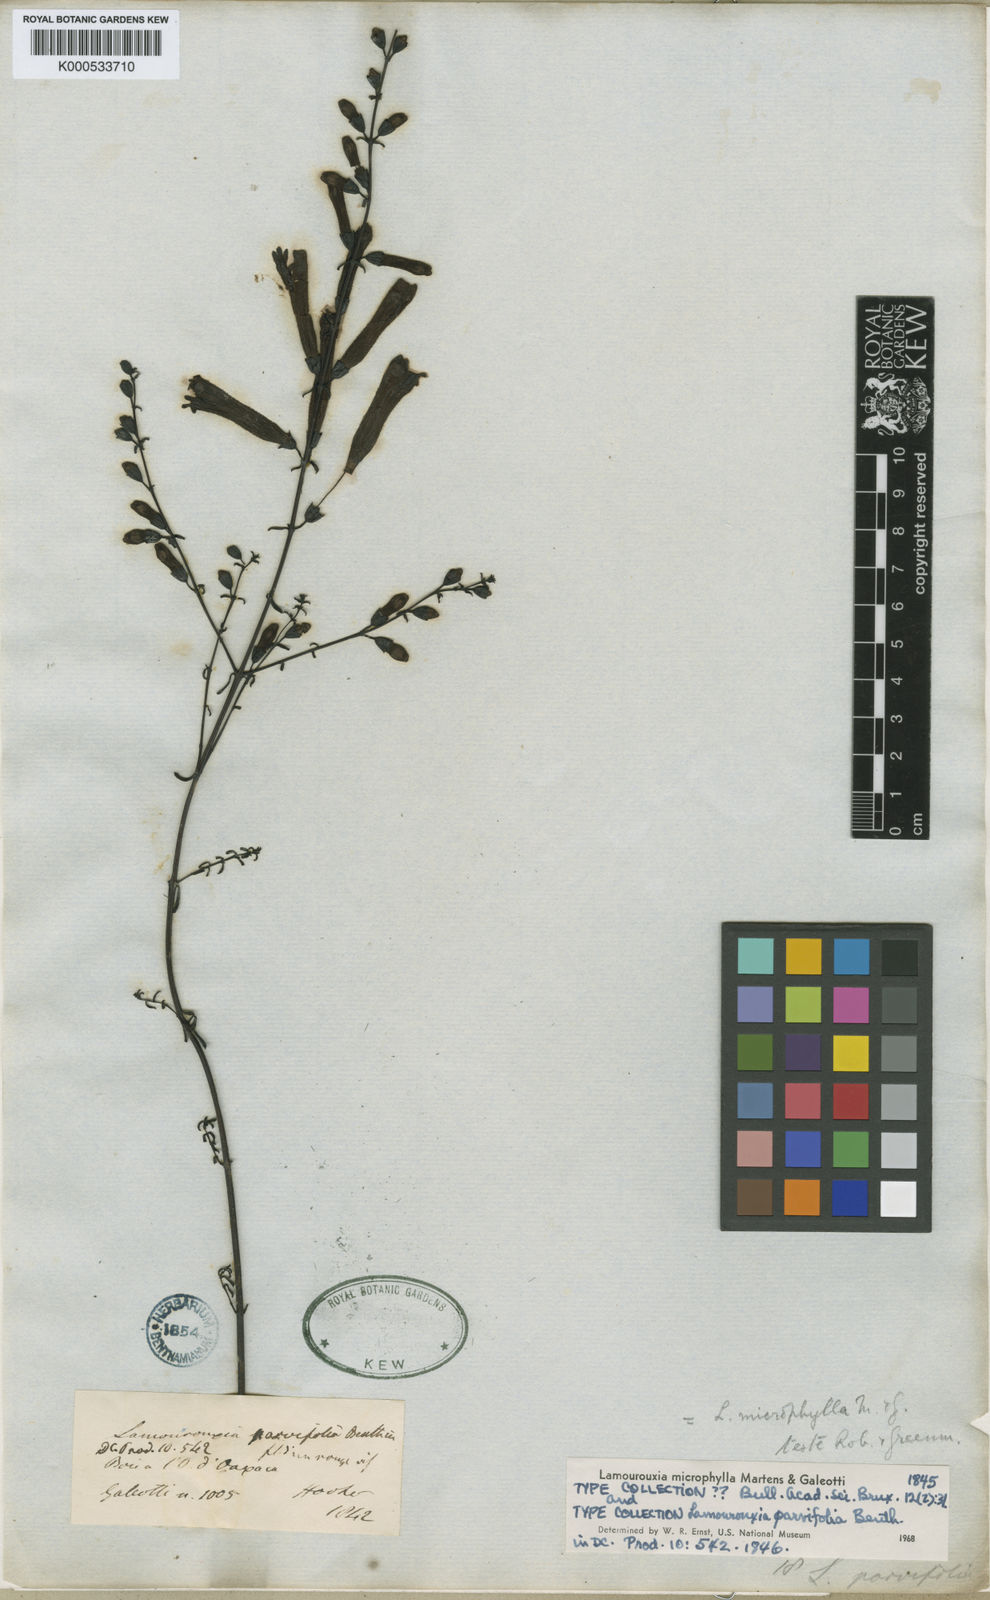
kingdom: Plantae
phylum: Tracheophyta
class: Magnoliopsida
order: Lamiales
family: Orobanchaceae
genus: Lamourouxia
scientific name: Lamourouxia microphylla
